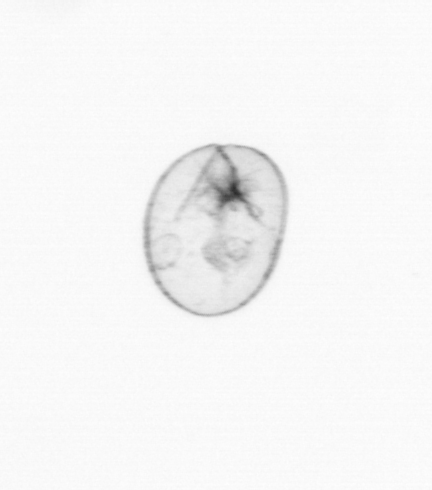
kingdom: Chromista
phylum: Myzozoa
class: Dinophyceae
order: Noctilucales
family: Noctilucaceae
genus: Noctiluca
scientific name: Noctiluca scintillans
